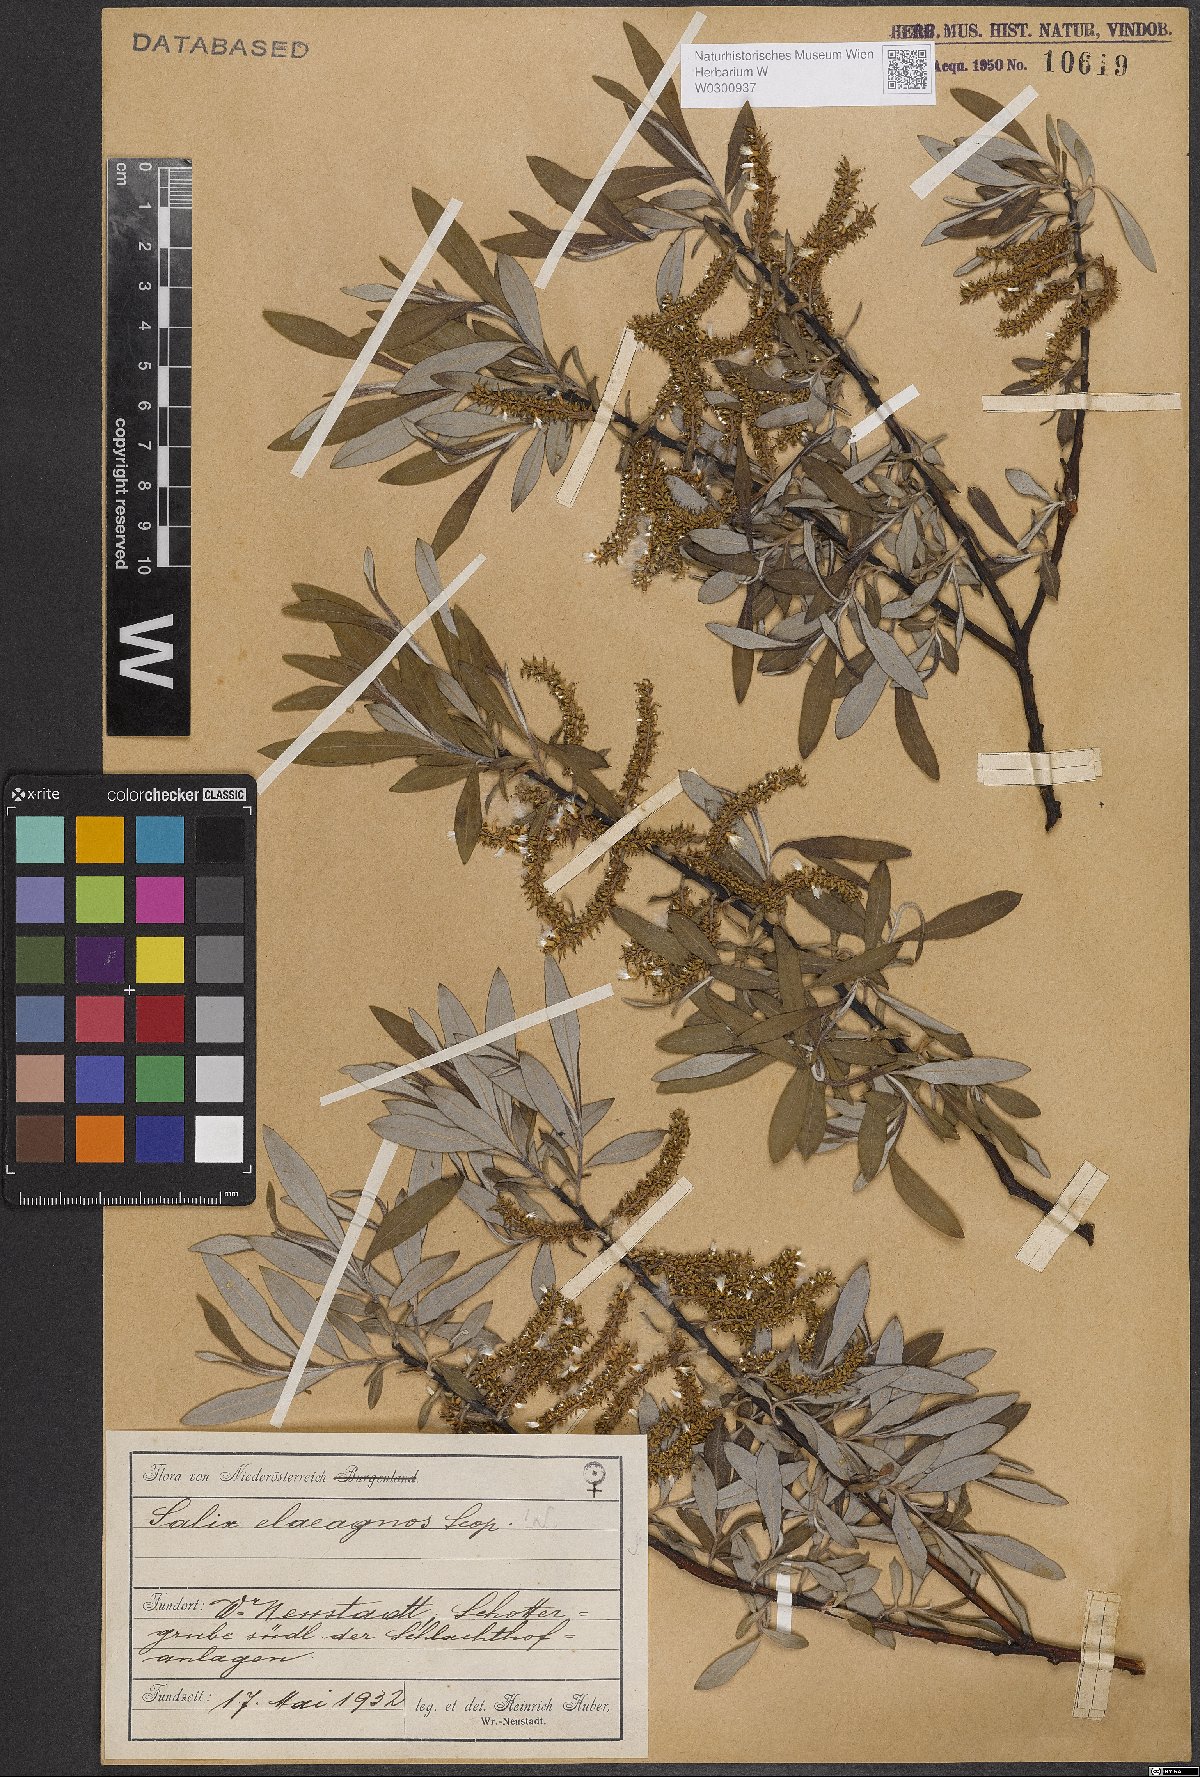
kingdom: Plantae
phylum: Tracheophyta
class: Magnoliopsida
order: Malpighiales
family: Salicaceae
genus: Salix
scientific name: Salix eleagnos
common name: Elaeagnus willow
